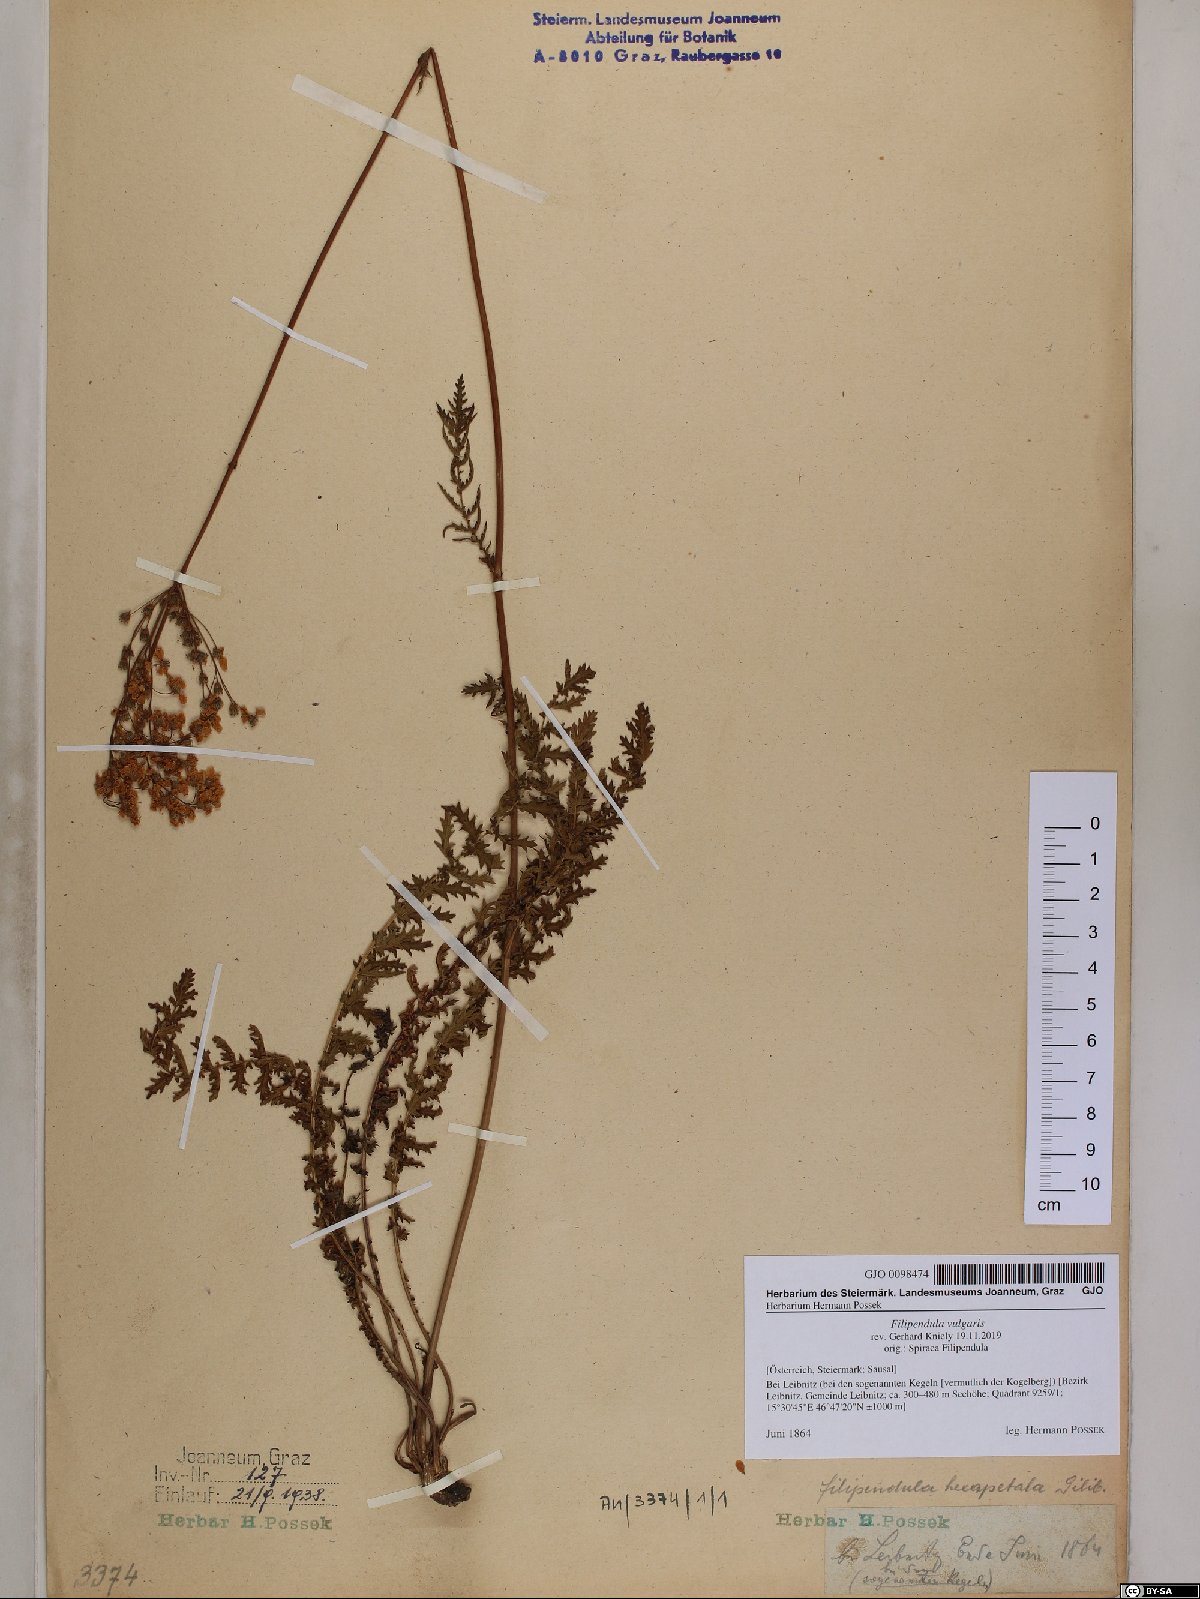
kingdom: Plantae
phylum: Tracheophyta
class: Magnoliopsida
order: Rosales
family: Rosaceae
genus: Filipendula
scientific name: Filipendula vulgaris
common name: Dropwort
